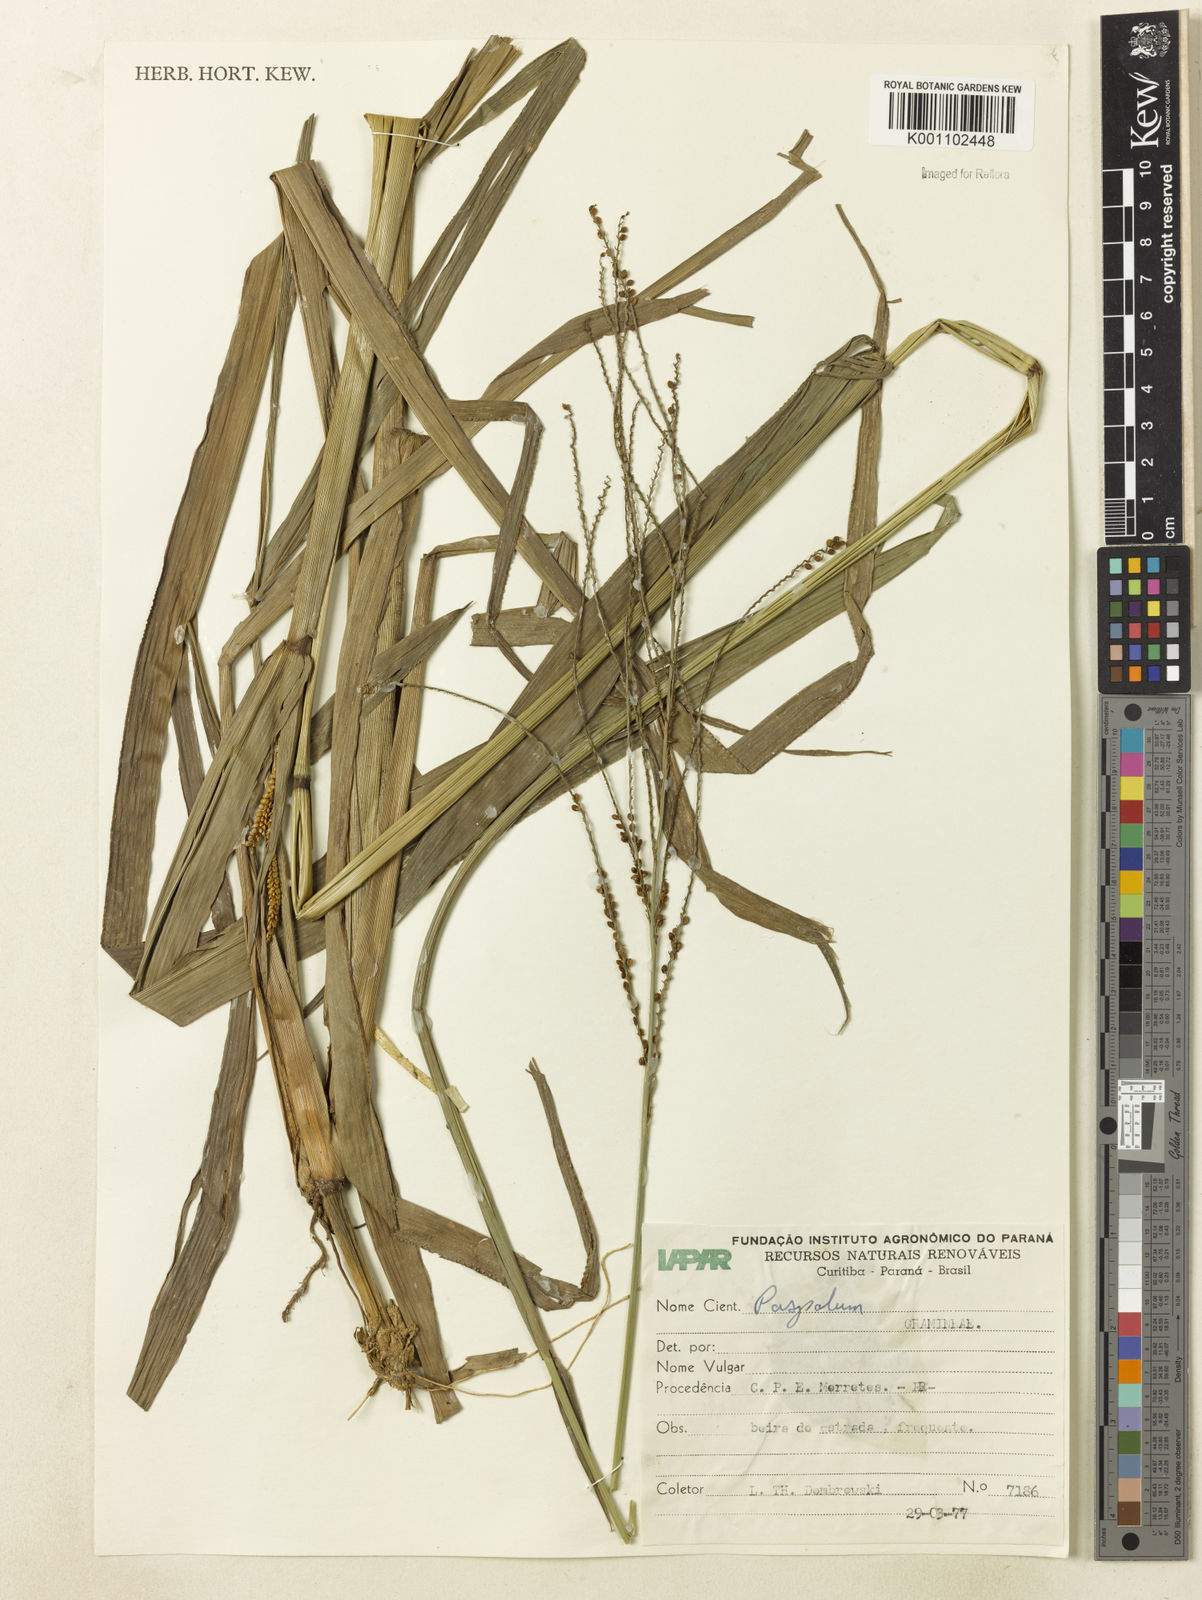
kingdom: Plantae
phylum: Tracheophyta
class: Liliopsida
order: Poales
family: Poaceae
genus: Paspalum
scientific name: Paspalum virgatum
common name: Talquezal
